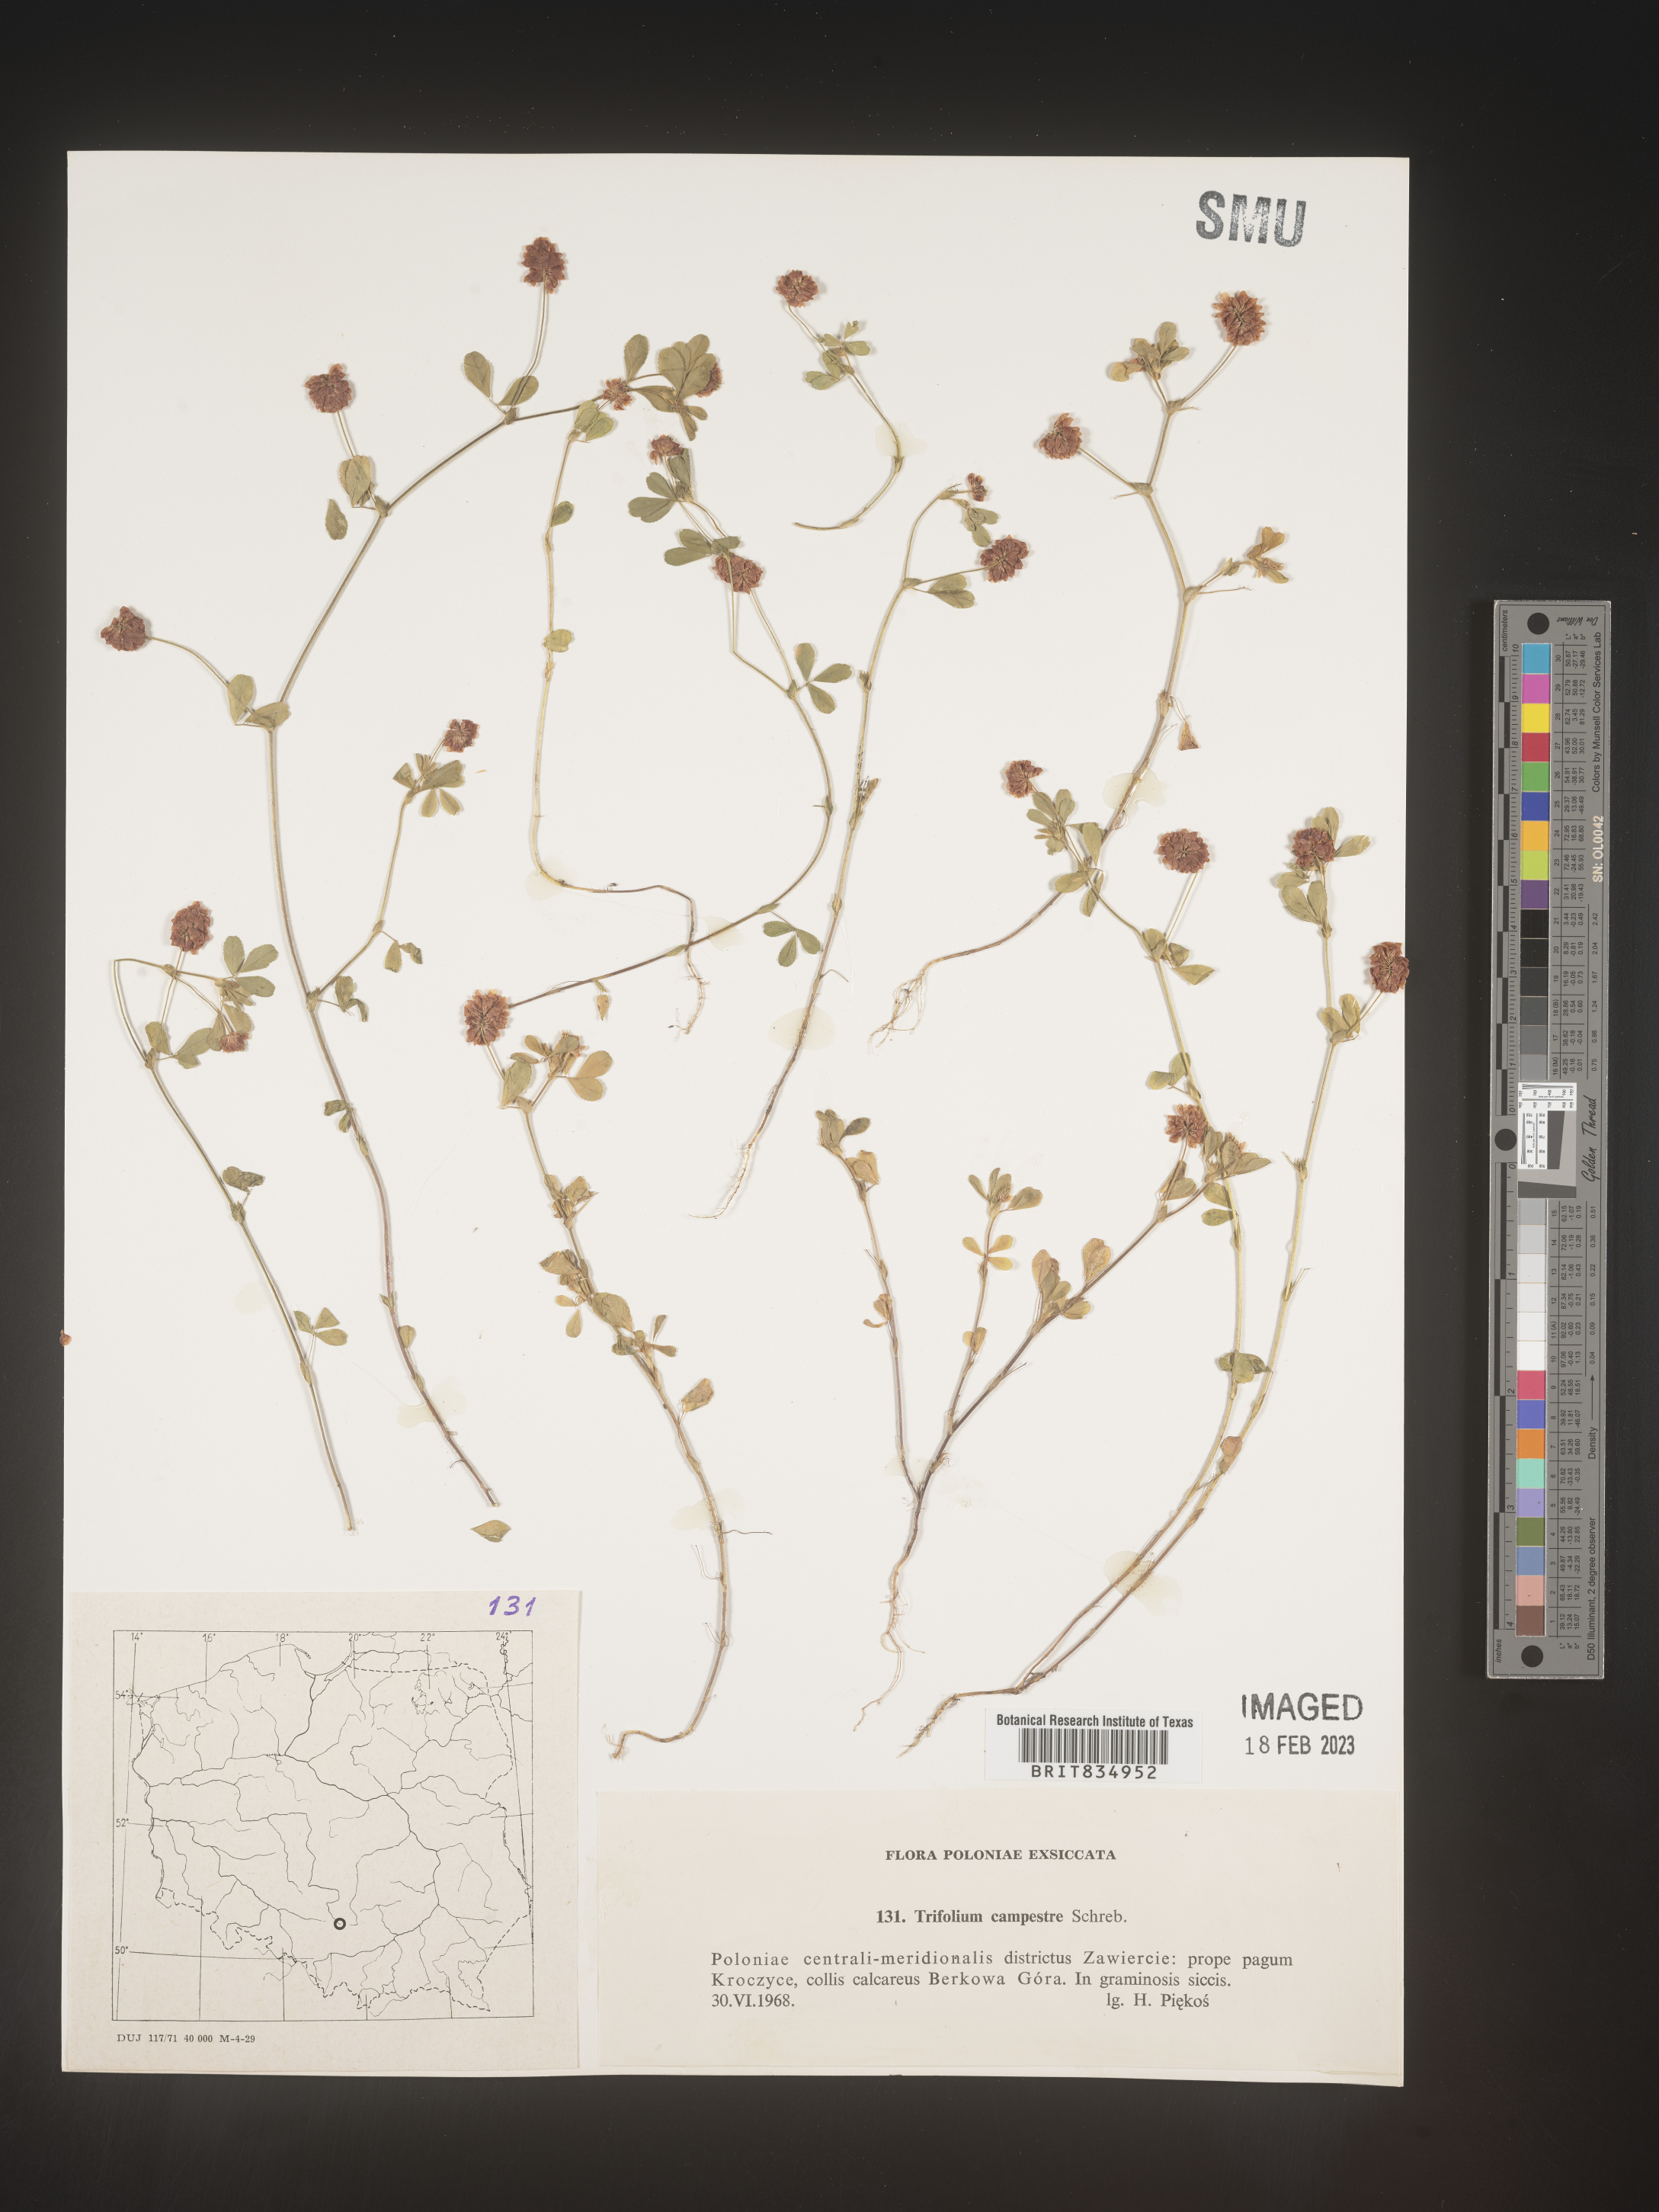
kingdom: Plantae
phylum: Tracheophyta
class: Magnoliopsida
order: Fabales
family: Fabaceae
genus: Trifolium
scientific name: Trifolium
